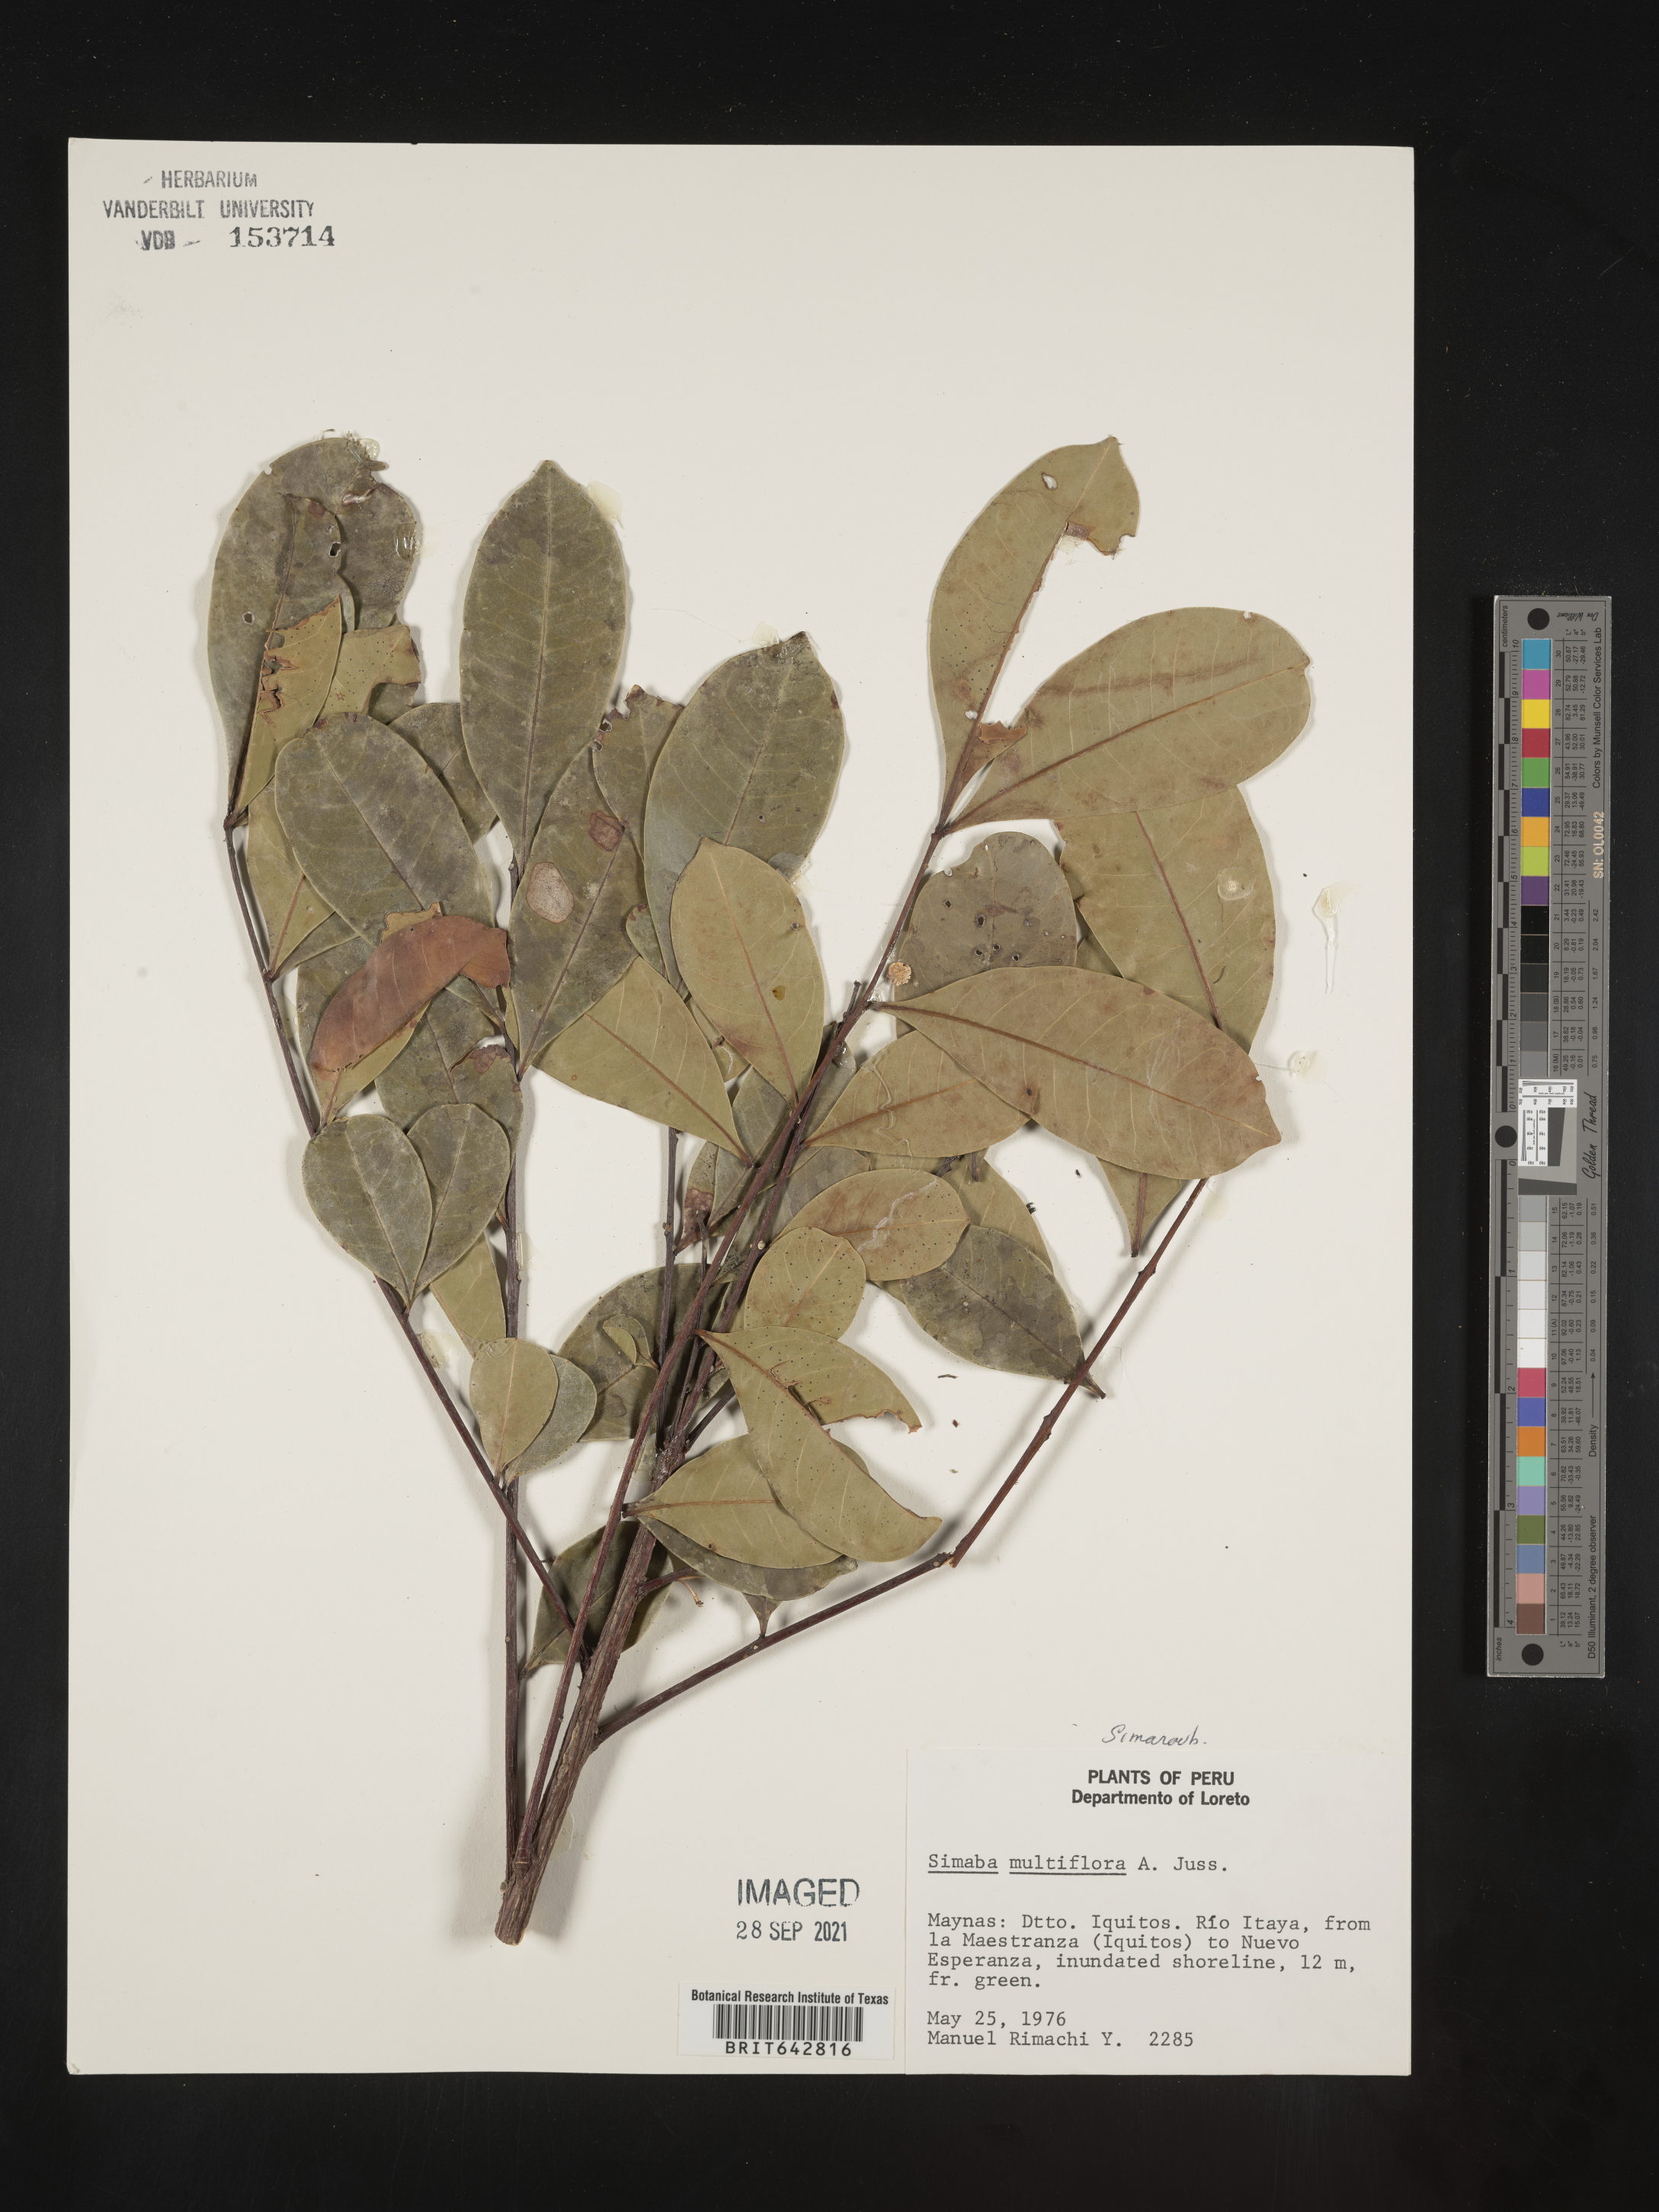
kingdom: Plantae
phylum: Tracheophyta
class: Magnoliopsida
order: Sapindales
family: Simaroubaceae
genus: Simaba
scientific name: Simaba
